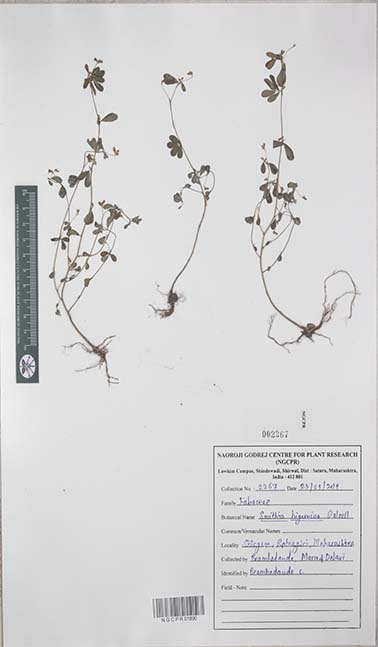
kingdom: Plantae
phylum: Tracheophyta
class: Magnoliopsida
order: Fabales
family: Fabaceae
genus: Smithia
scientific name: Smithia bigemina
